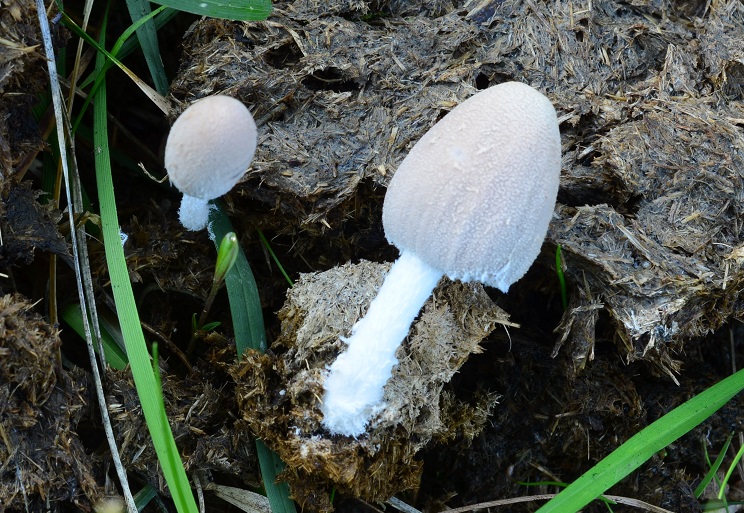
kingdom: Fungi
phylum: Basidiomycota
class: Agaricomycetes
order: Agaricales
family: Psathyrellaceae
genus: Coprinopsis
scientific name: Coprinopsis pseudonivea
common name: pudret blækhat
